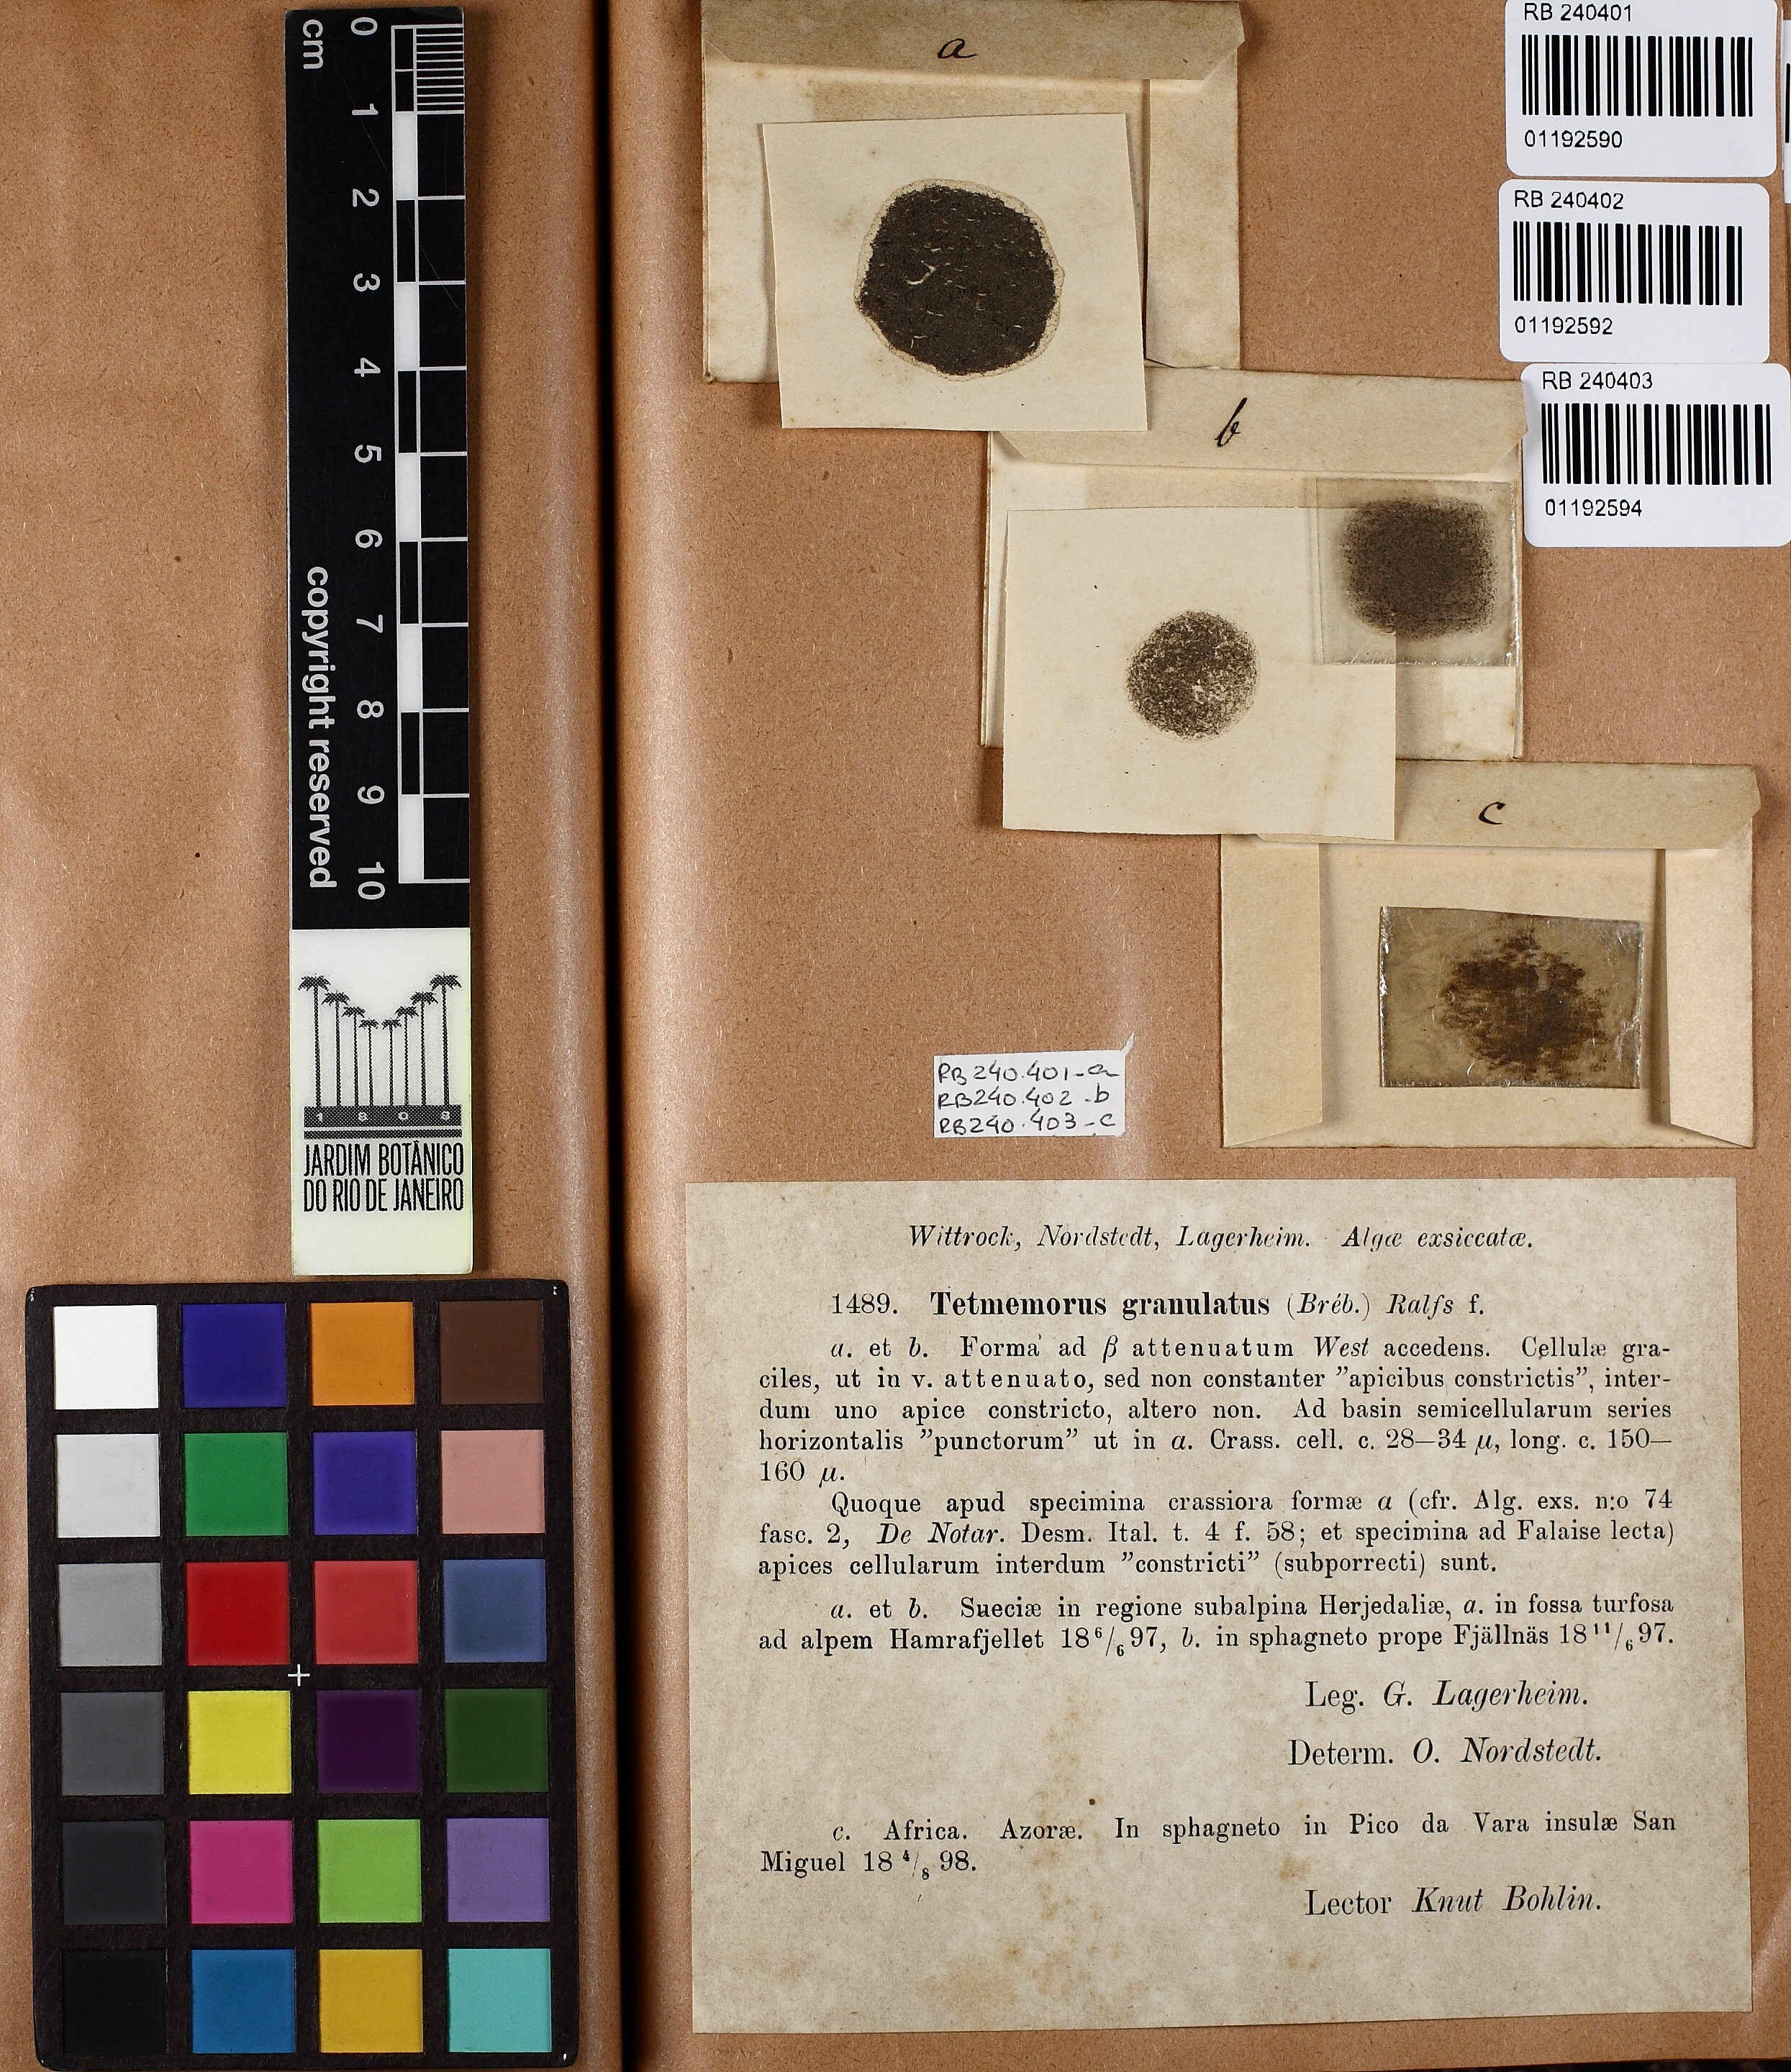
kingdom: Plantae
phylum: Charophyta
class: Conjugatophyceae
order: Desmidiales
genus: Tetmemorus
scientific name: Tetmemorus granulatus
